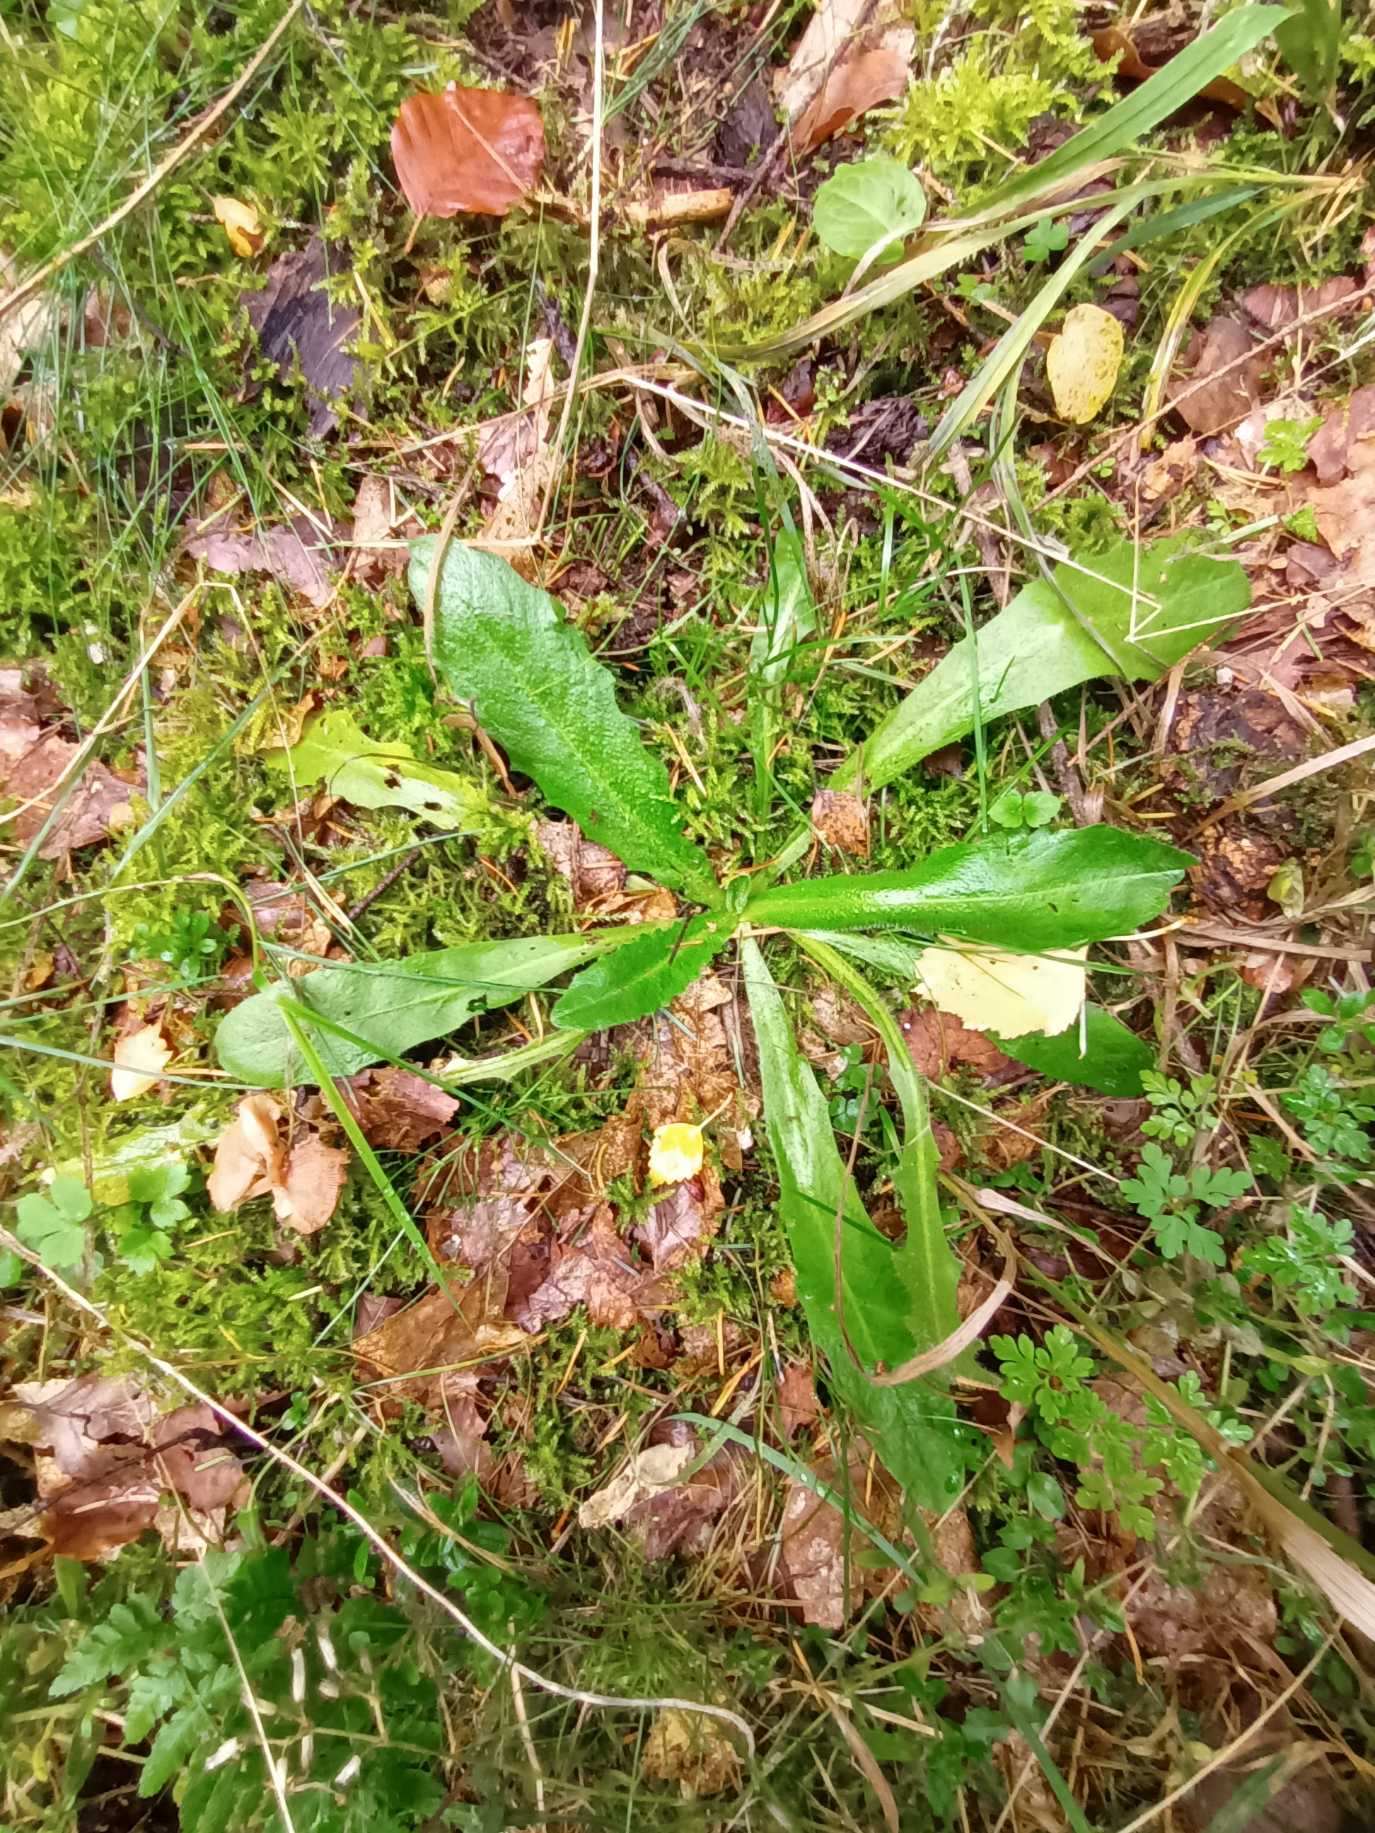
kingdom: Plantae
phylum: Tracheophyta
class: Magnoliopsida
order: Asterales
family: Asteraceae
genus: Hypochaeris
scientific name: Hypochaeris radicata
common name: Almindelig kongepen
